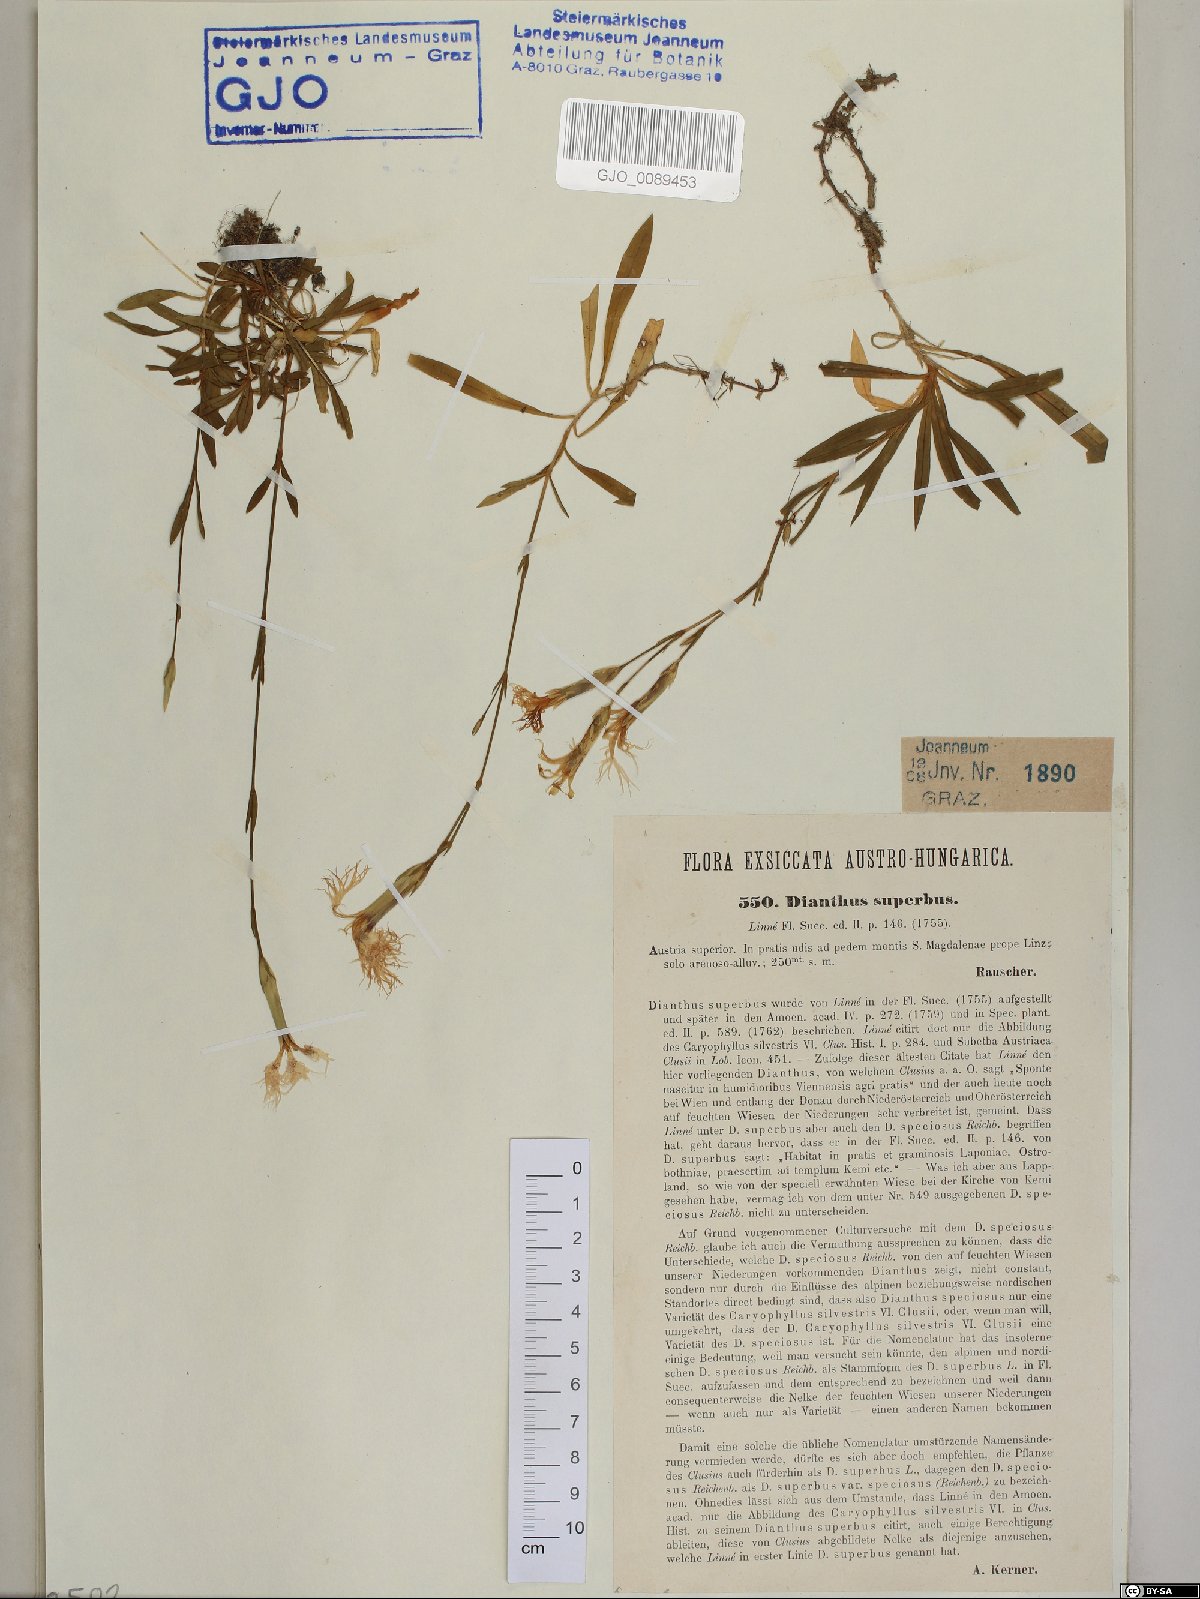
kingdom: Plantae
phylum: Tracheophyta
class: Magnoliopsida
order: Caryophyllales
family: Caryophyllaceae
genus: Dianthus
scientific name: Dianthus superbus
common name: Fringed pink
